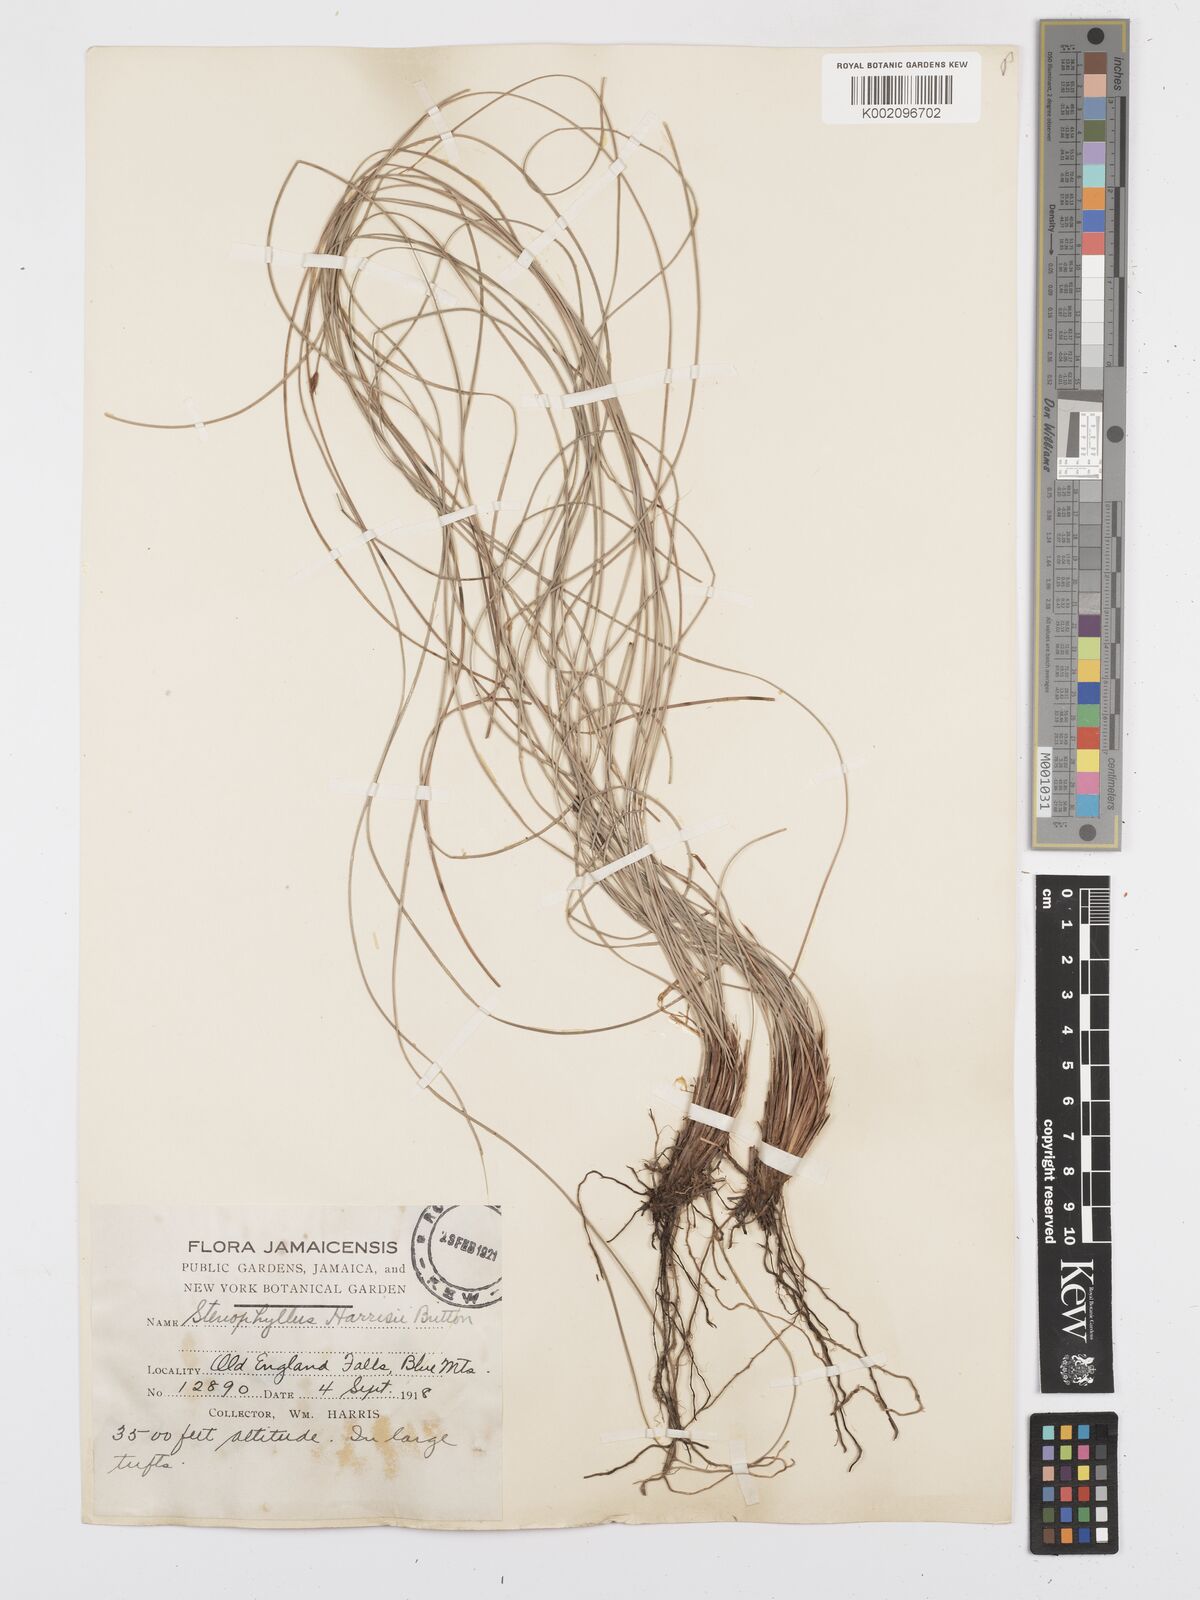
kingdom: Plantae
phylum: Tracheophyta
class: Liliopsida
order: Poales
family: Cyperaceae
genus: Bulbostylis
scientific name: Bulbostylis
